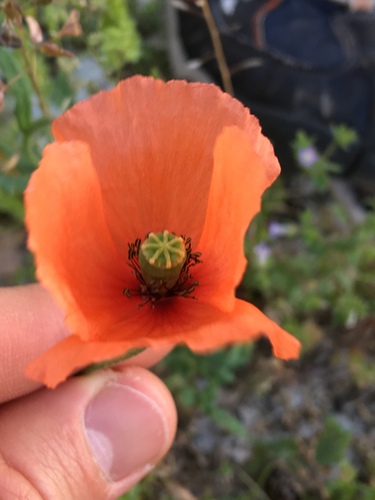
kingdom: Plantae
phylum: Tracheophyta
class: Magnoliopsida
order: Ranunculales
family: Papaveraceae
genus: Papaver
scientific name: Papaver rhoeas
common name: Corn poppy
